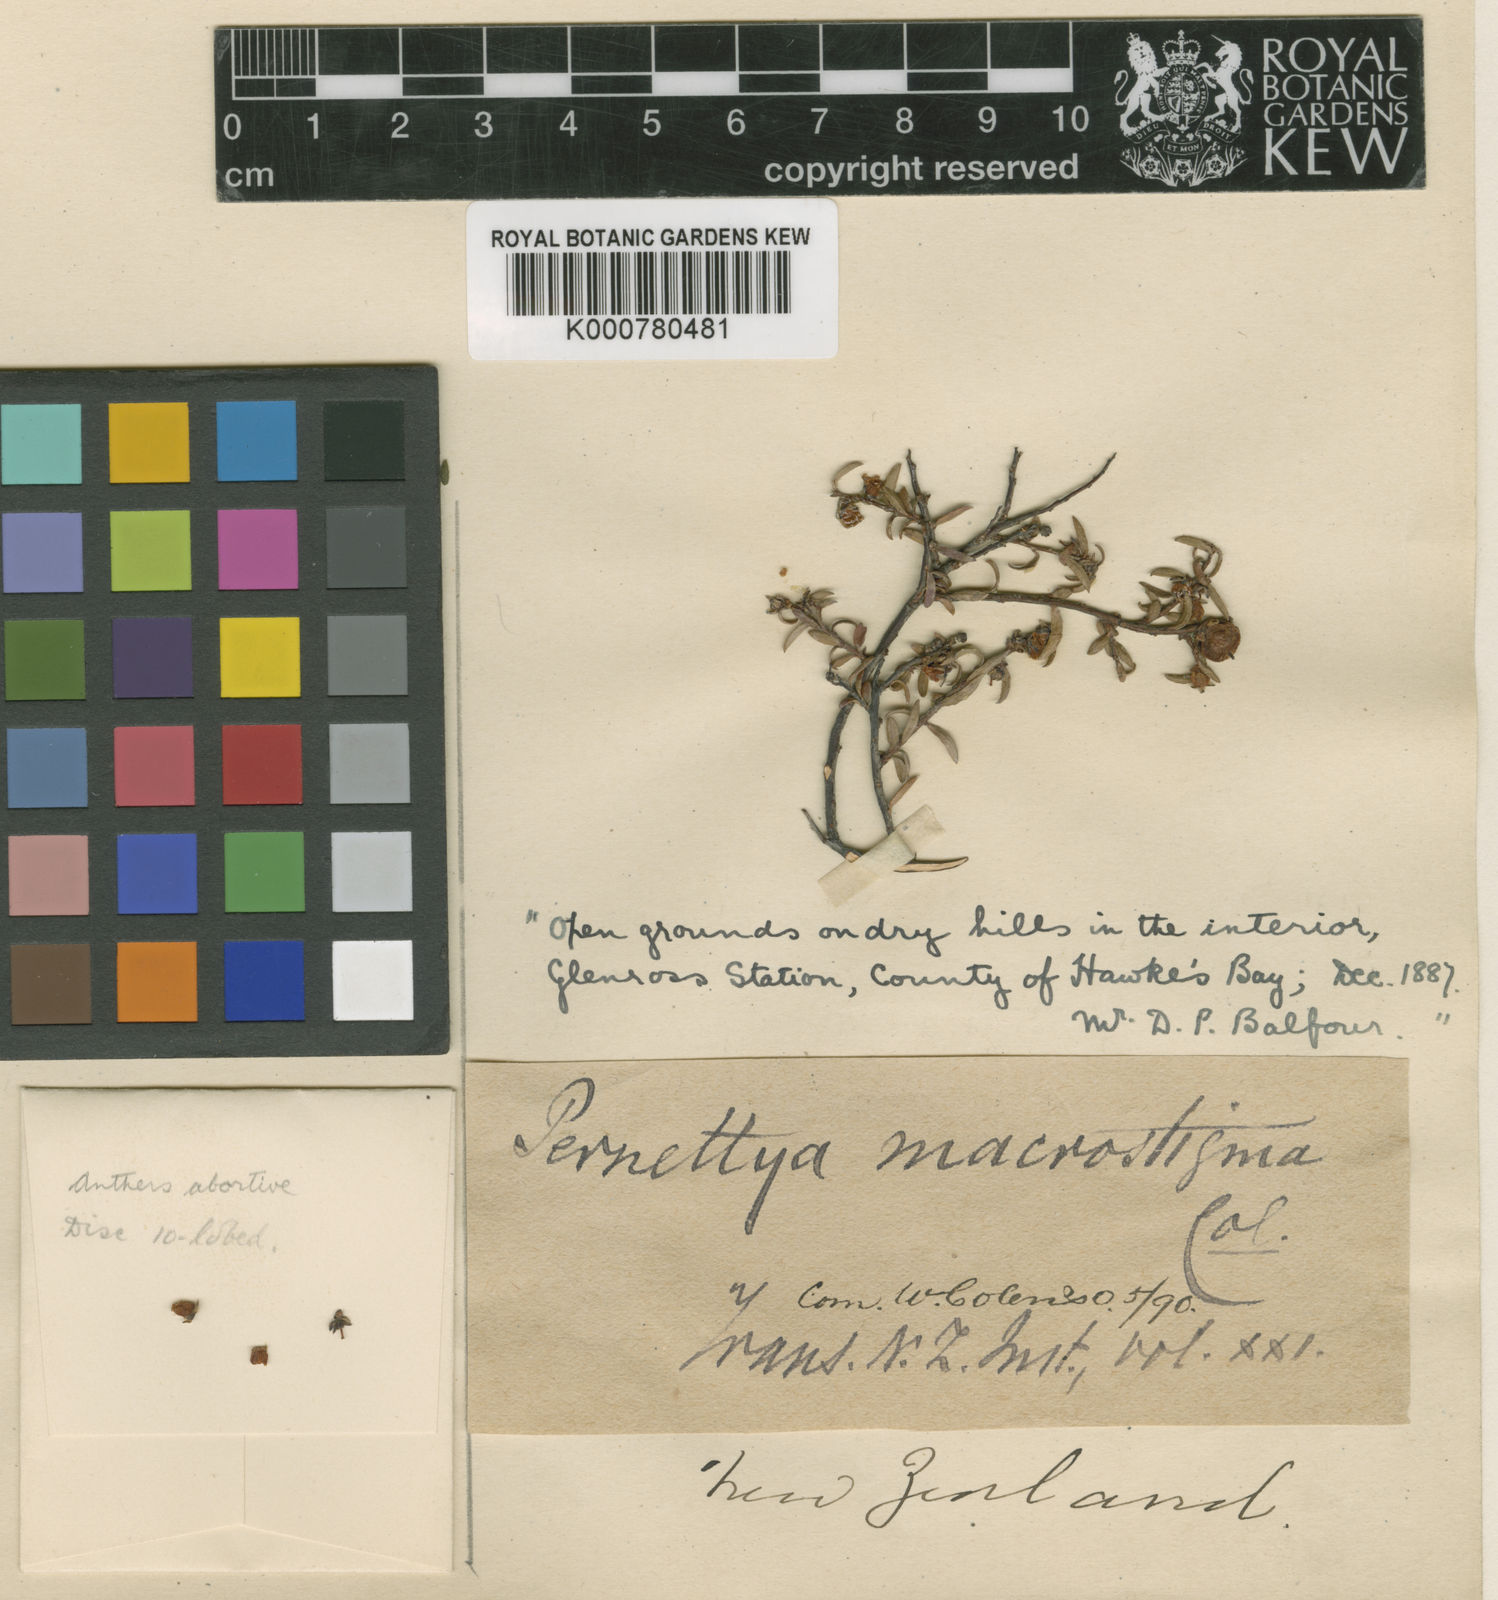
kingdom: Plantae
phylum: Tracheophyta
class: Magnoliopsida
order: Ericales
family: Ericaceae
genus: Gaultheria
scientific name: Gaultheria macrostigma
